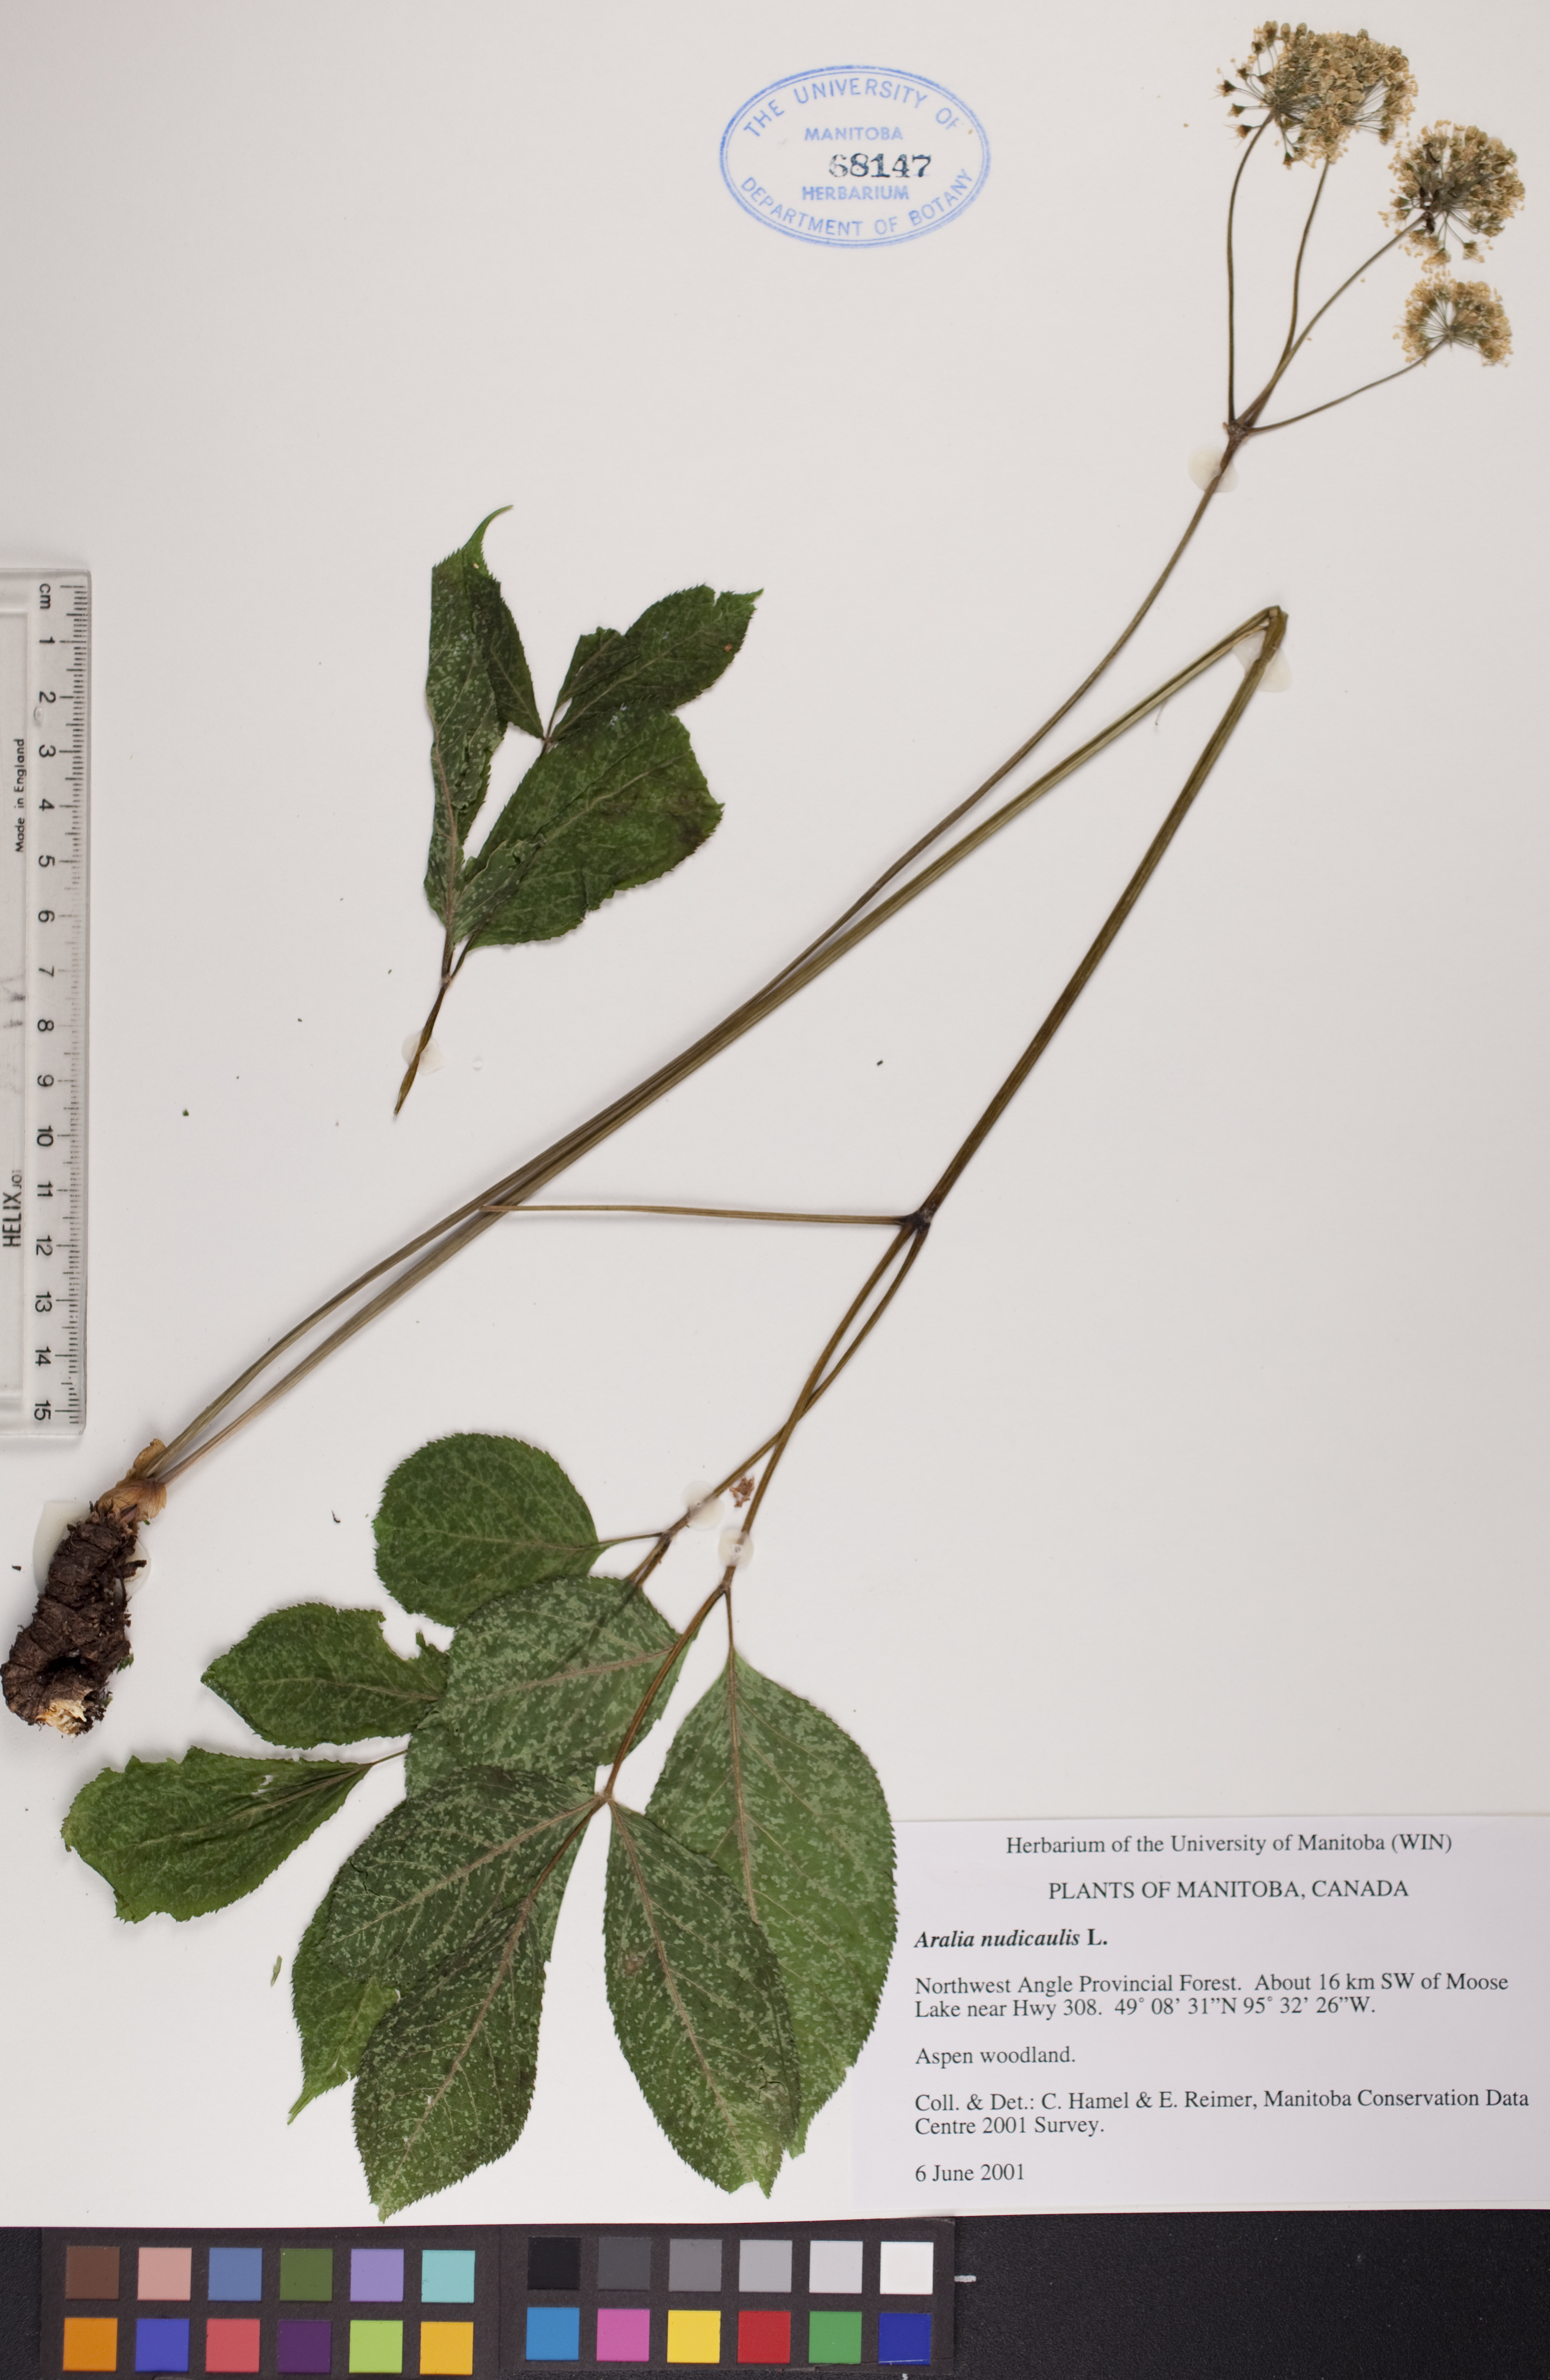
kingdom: Plantae
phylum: Tracheophyta
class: Magnoliopsida
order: Apiales
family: Araliaceae
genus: Aralia
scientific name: Aralia nudicaulis
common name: Wild sarsaparilla
